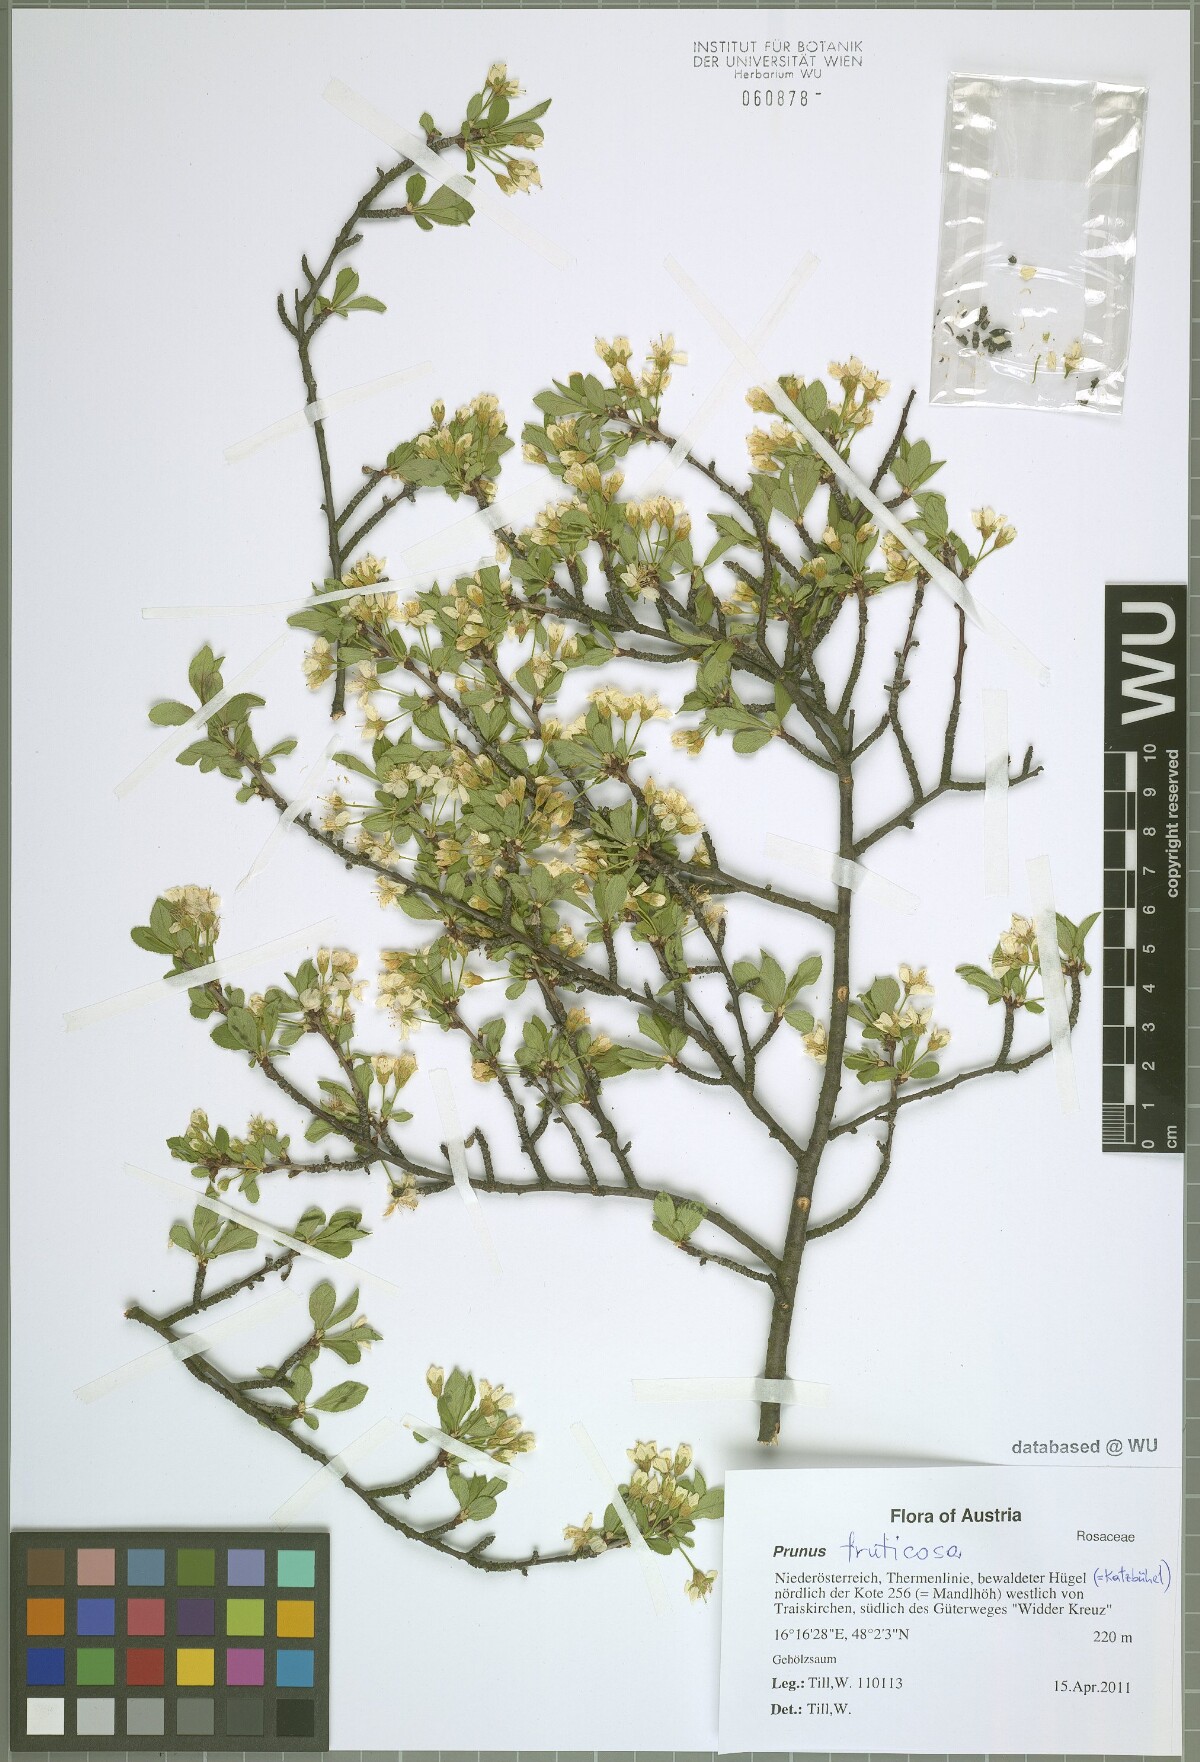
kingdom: Plantae
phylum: Tracheophyta
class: Magnoliopsida
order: Rosales
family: Rosaceae
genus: Prunus
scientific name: Prunus fruticosa
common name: European dwarf cherry
